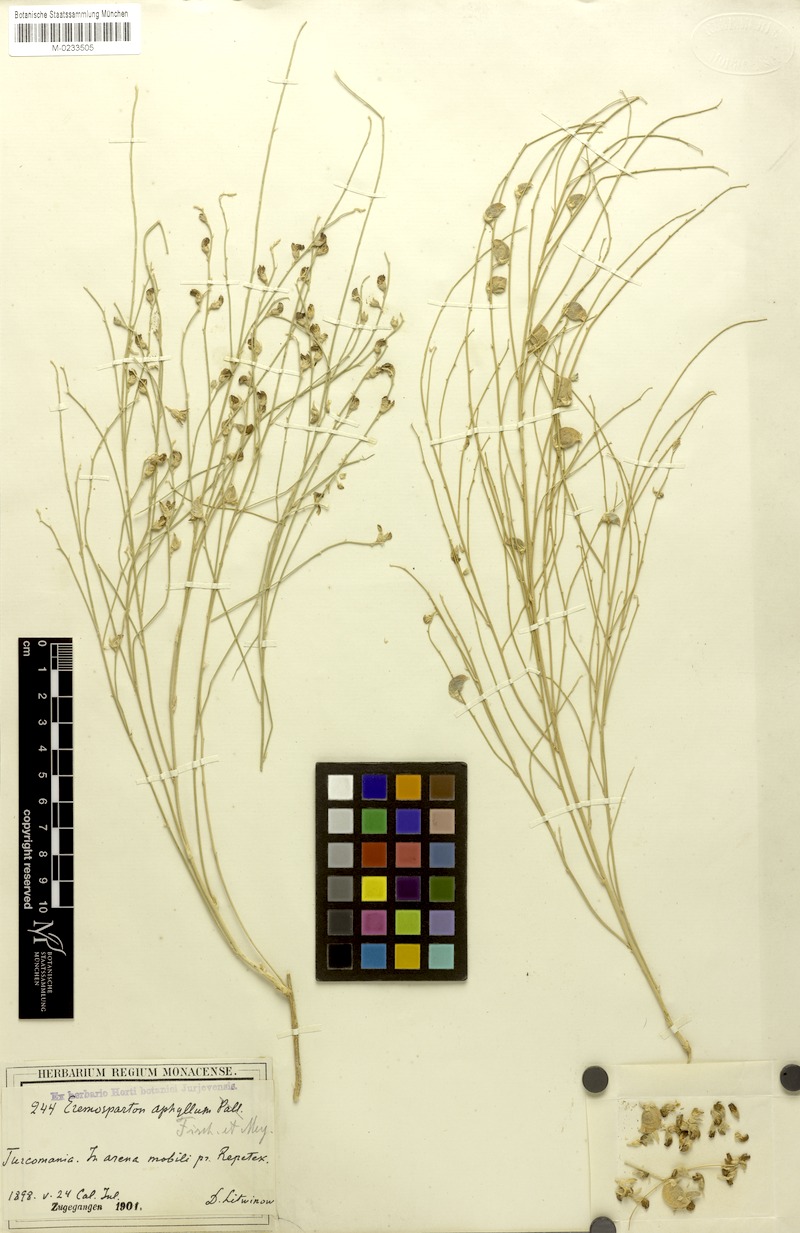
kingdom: Plantae
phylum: Tracheophyta
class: Magnoliopsida
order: Fabales
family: Fabaceae
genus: Eremosparton
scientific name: Eremosparton flaccidum
